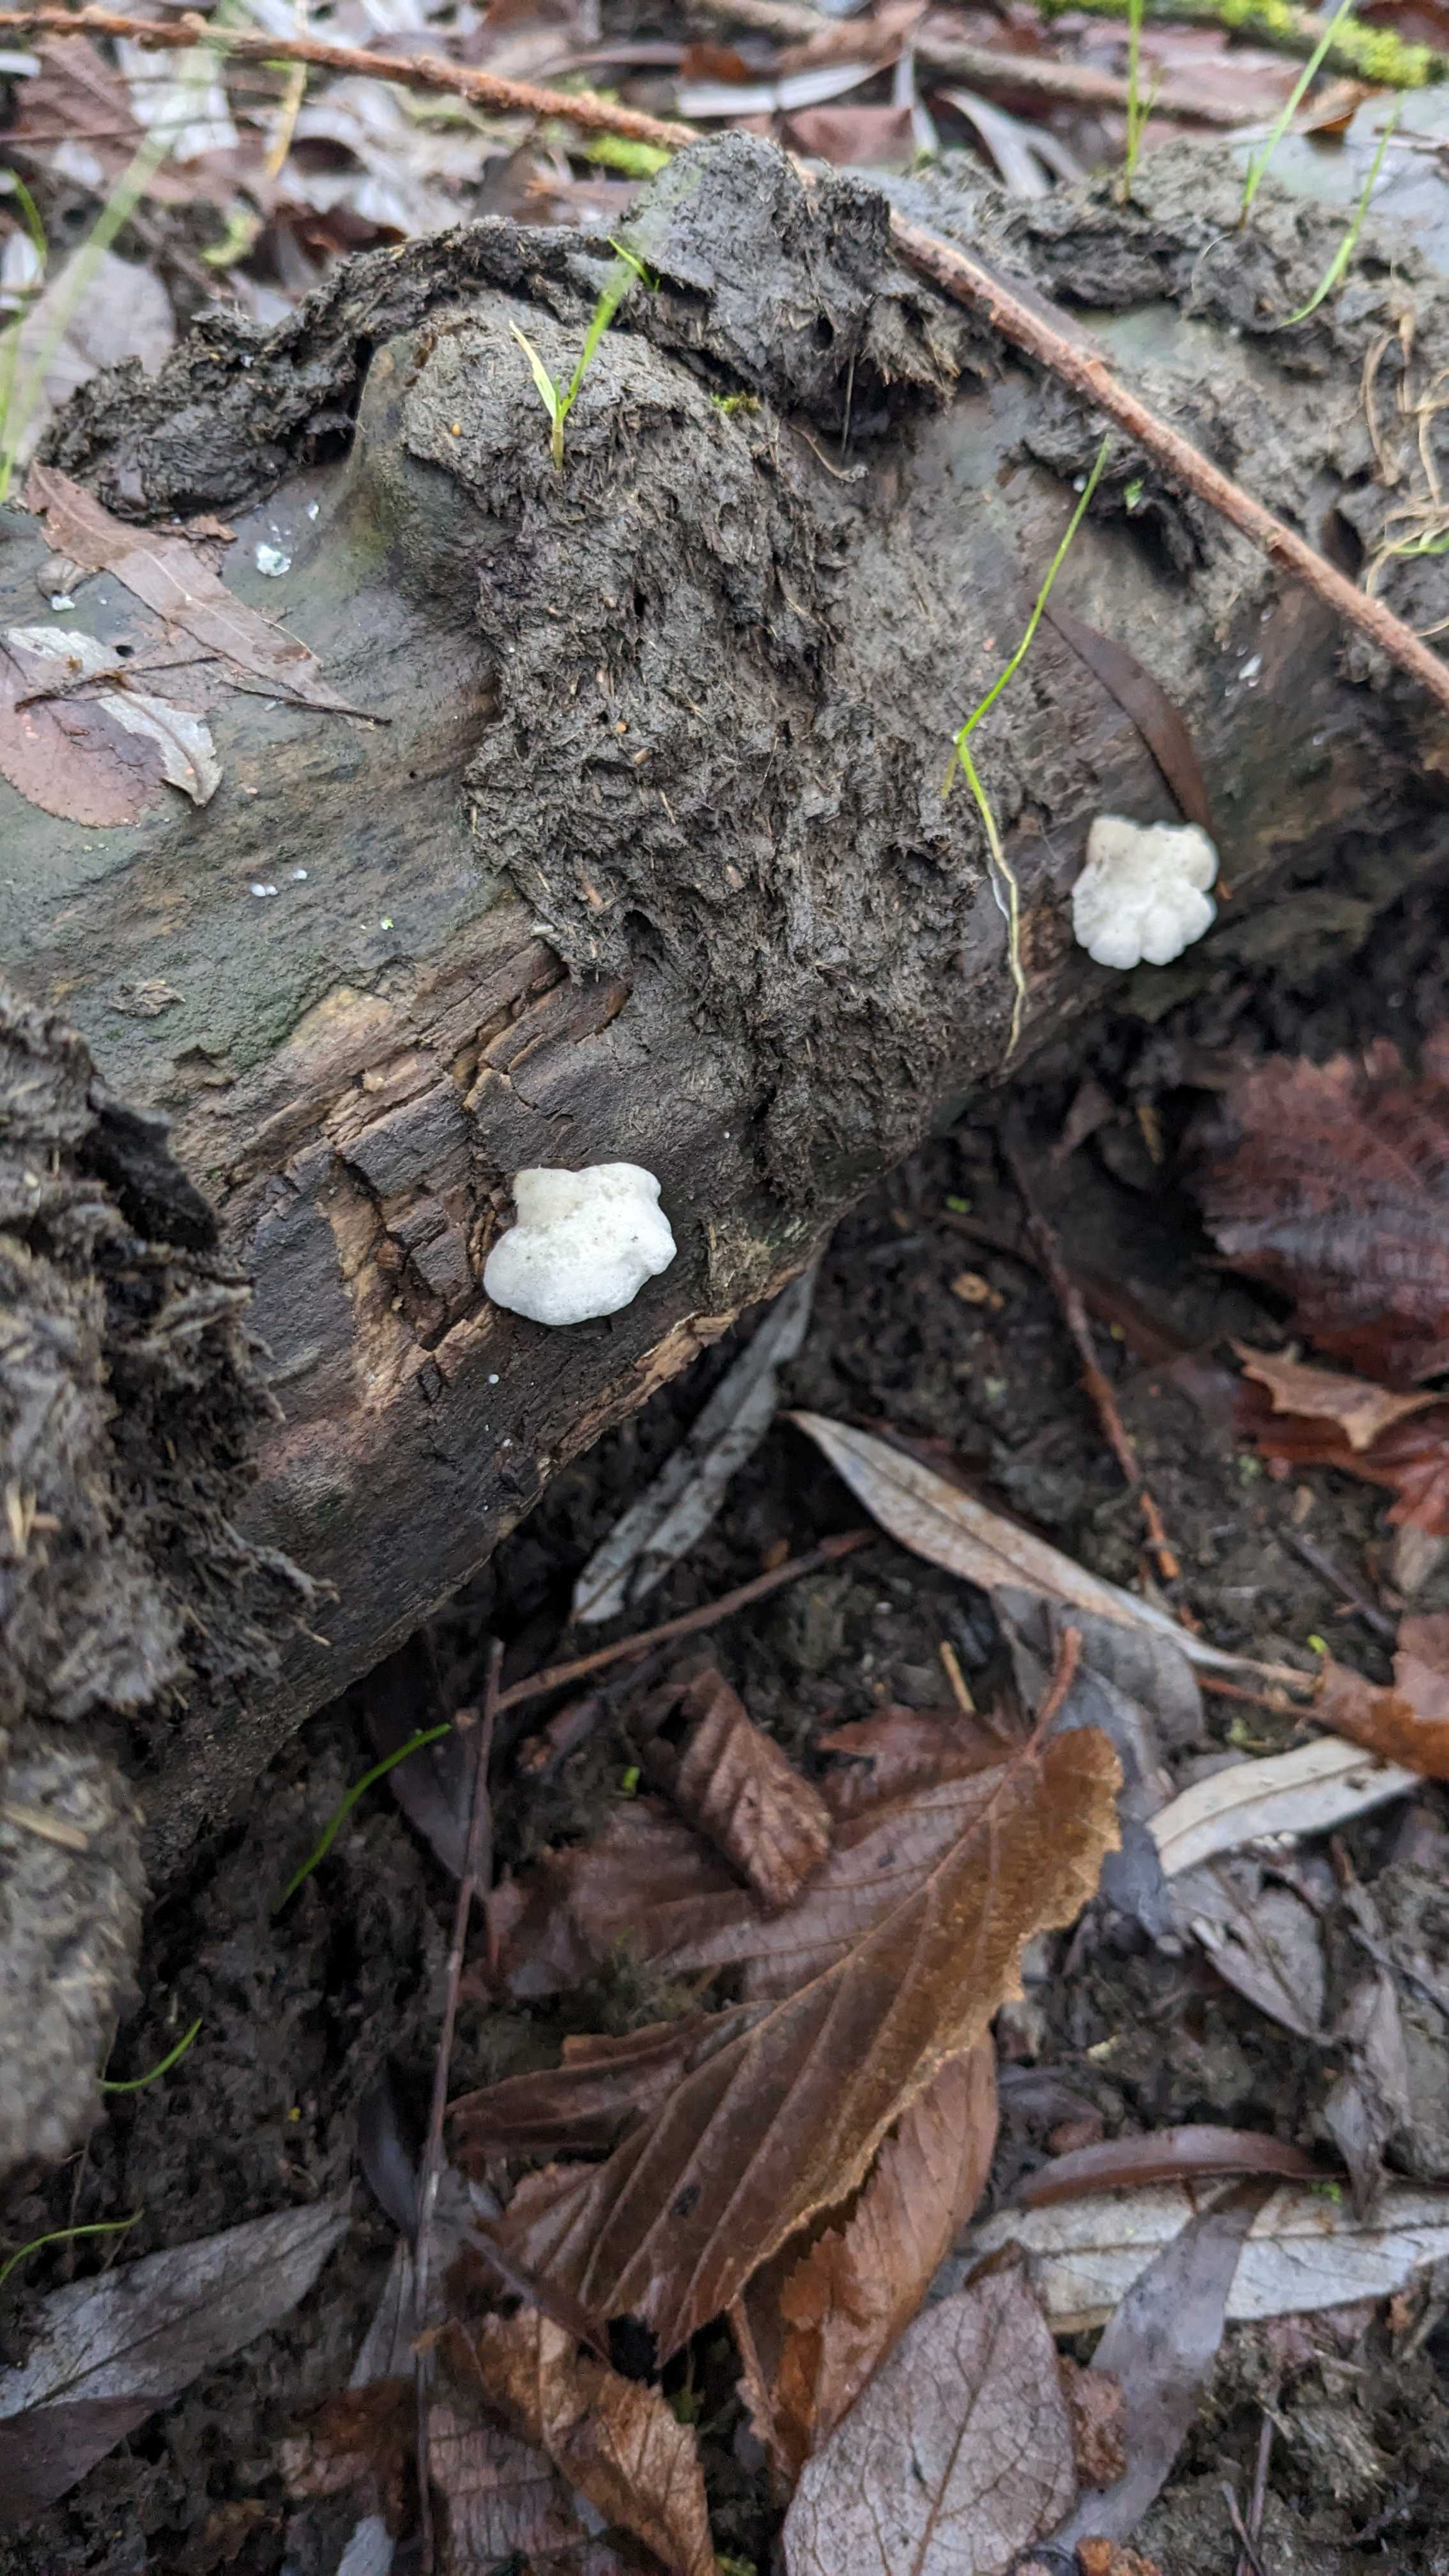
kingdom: Fungi
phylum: Basidiomycota
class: Agaricomycetes
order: Agaricales
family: Crepidotaceae
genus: Crepidotus
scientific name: Crepidotus
